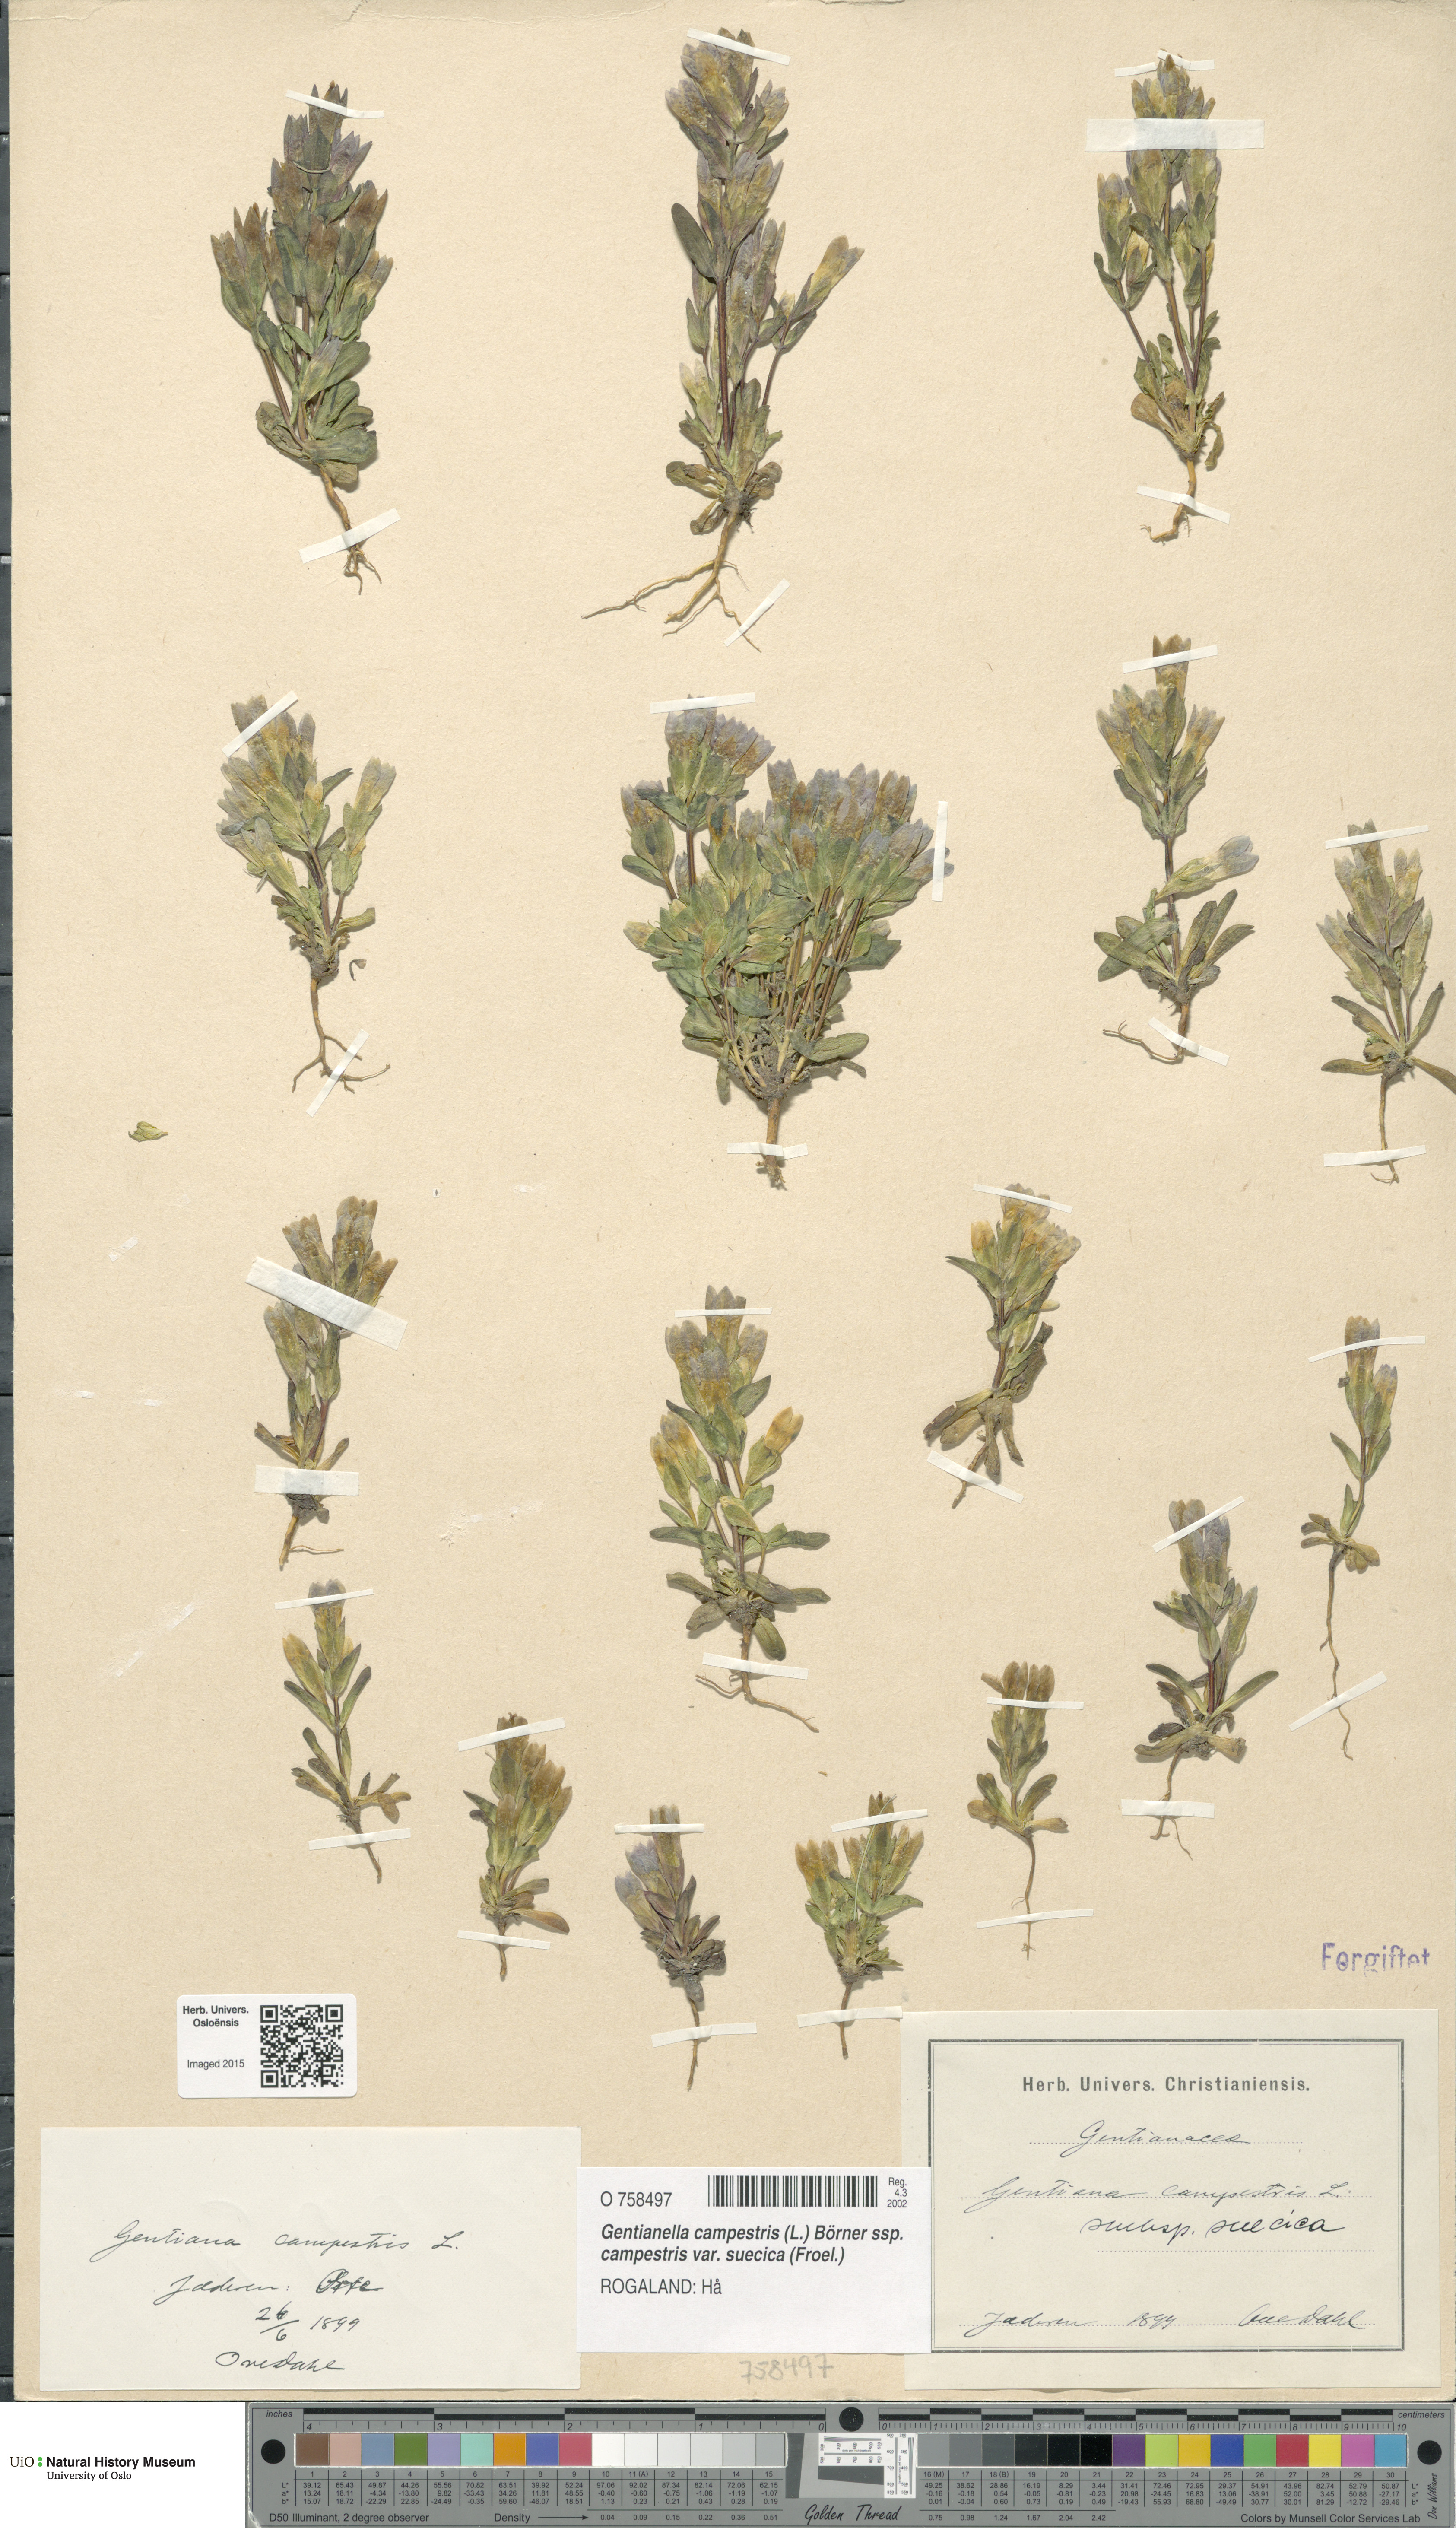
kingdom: Plantae
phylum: Tracheophyta
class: Magnoliopsida
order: Gentianales
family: Gentianaceae
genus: Gentianella
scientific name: Gentianella campestris
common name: Field gentian
